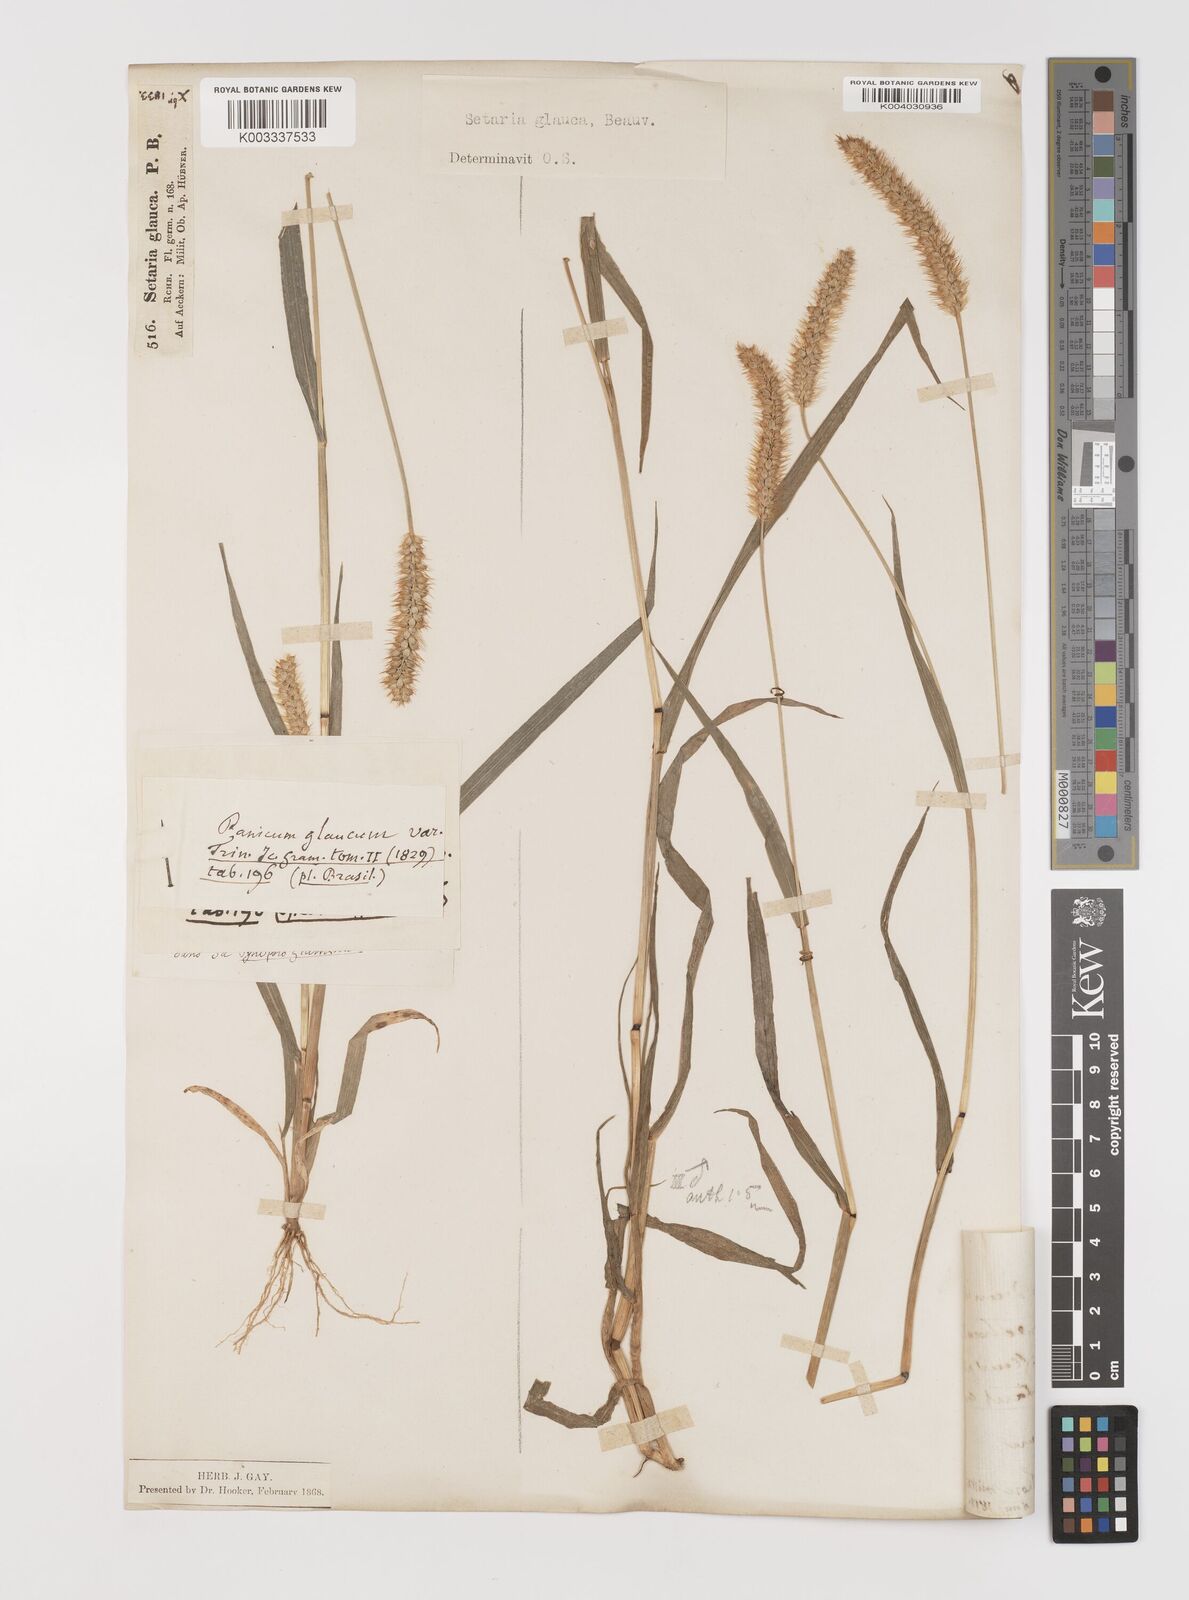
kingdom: Plantae
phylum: Tracheophyta
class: Liliopsida
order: Poales
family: Poaceae
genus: Setaria
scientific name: Setaria pumila
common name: Yellow bristle-grass
